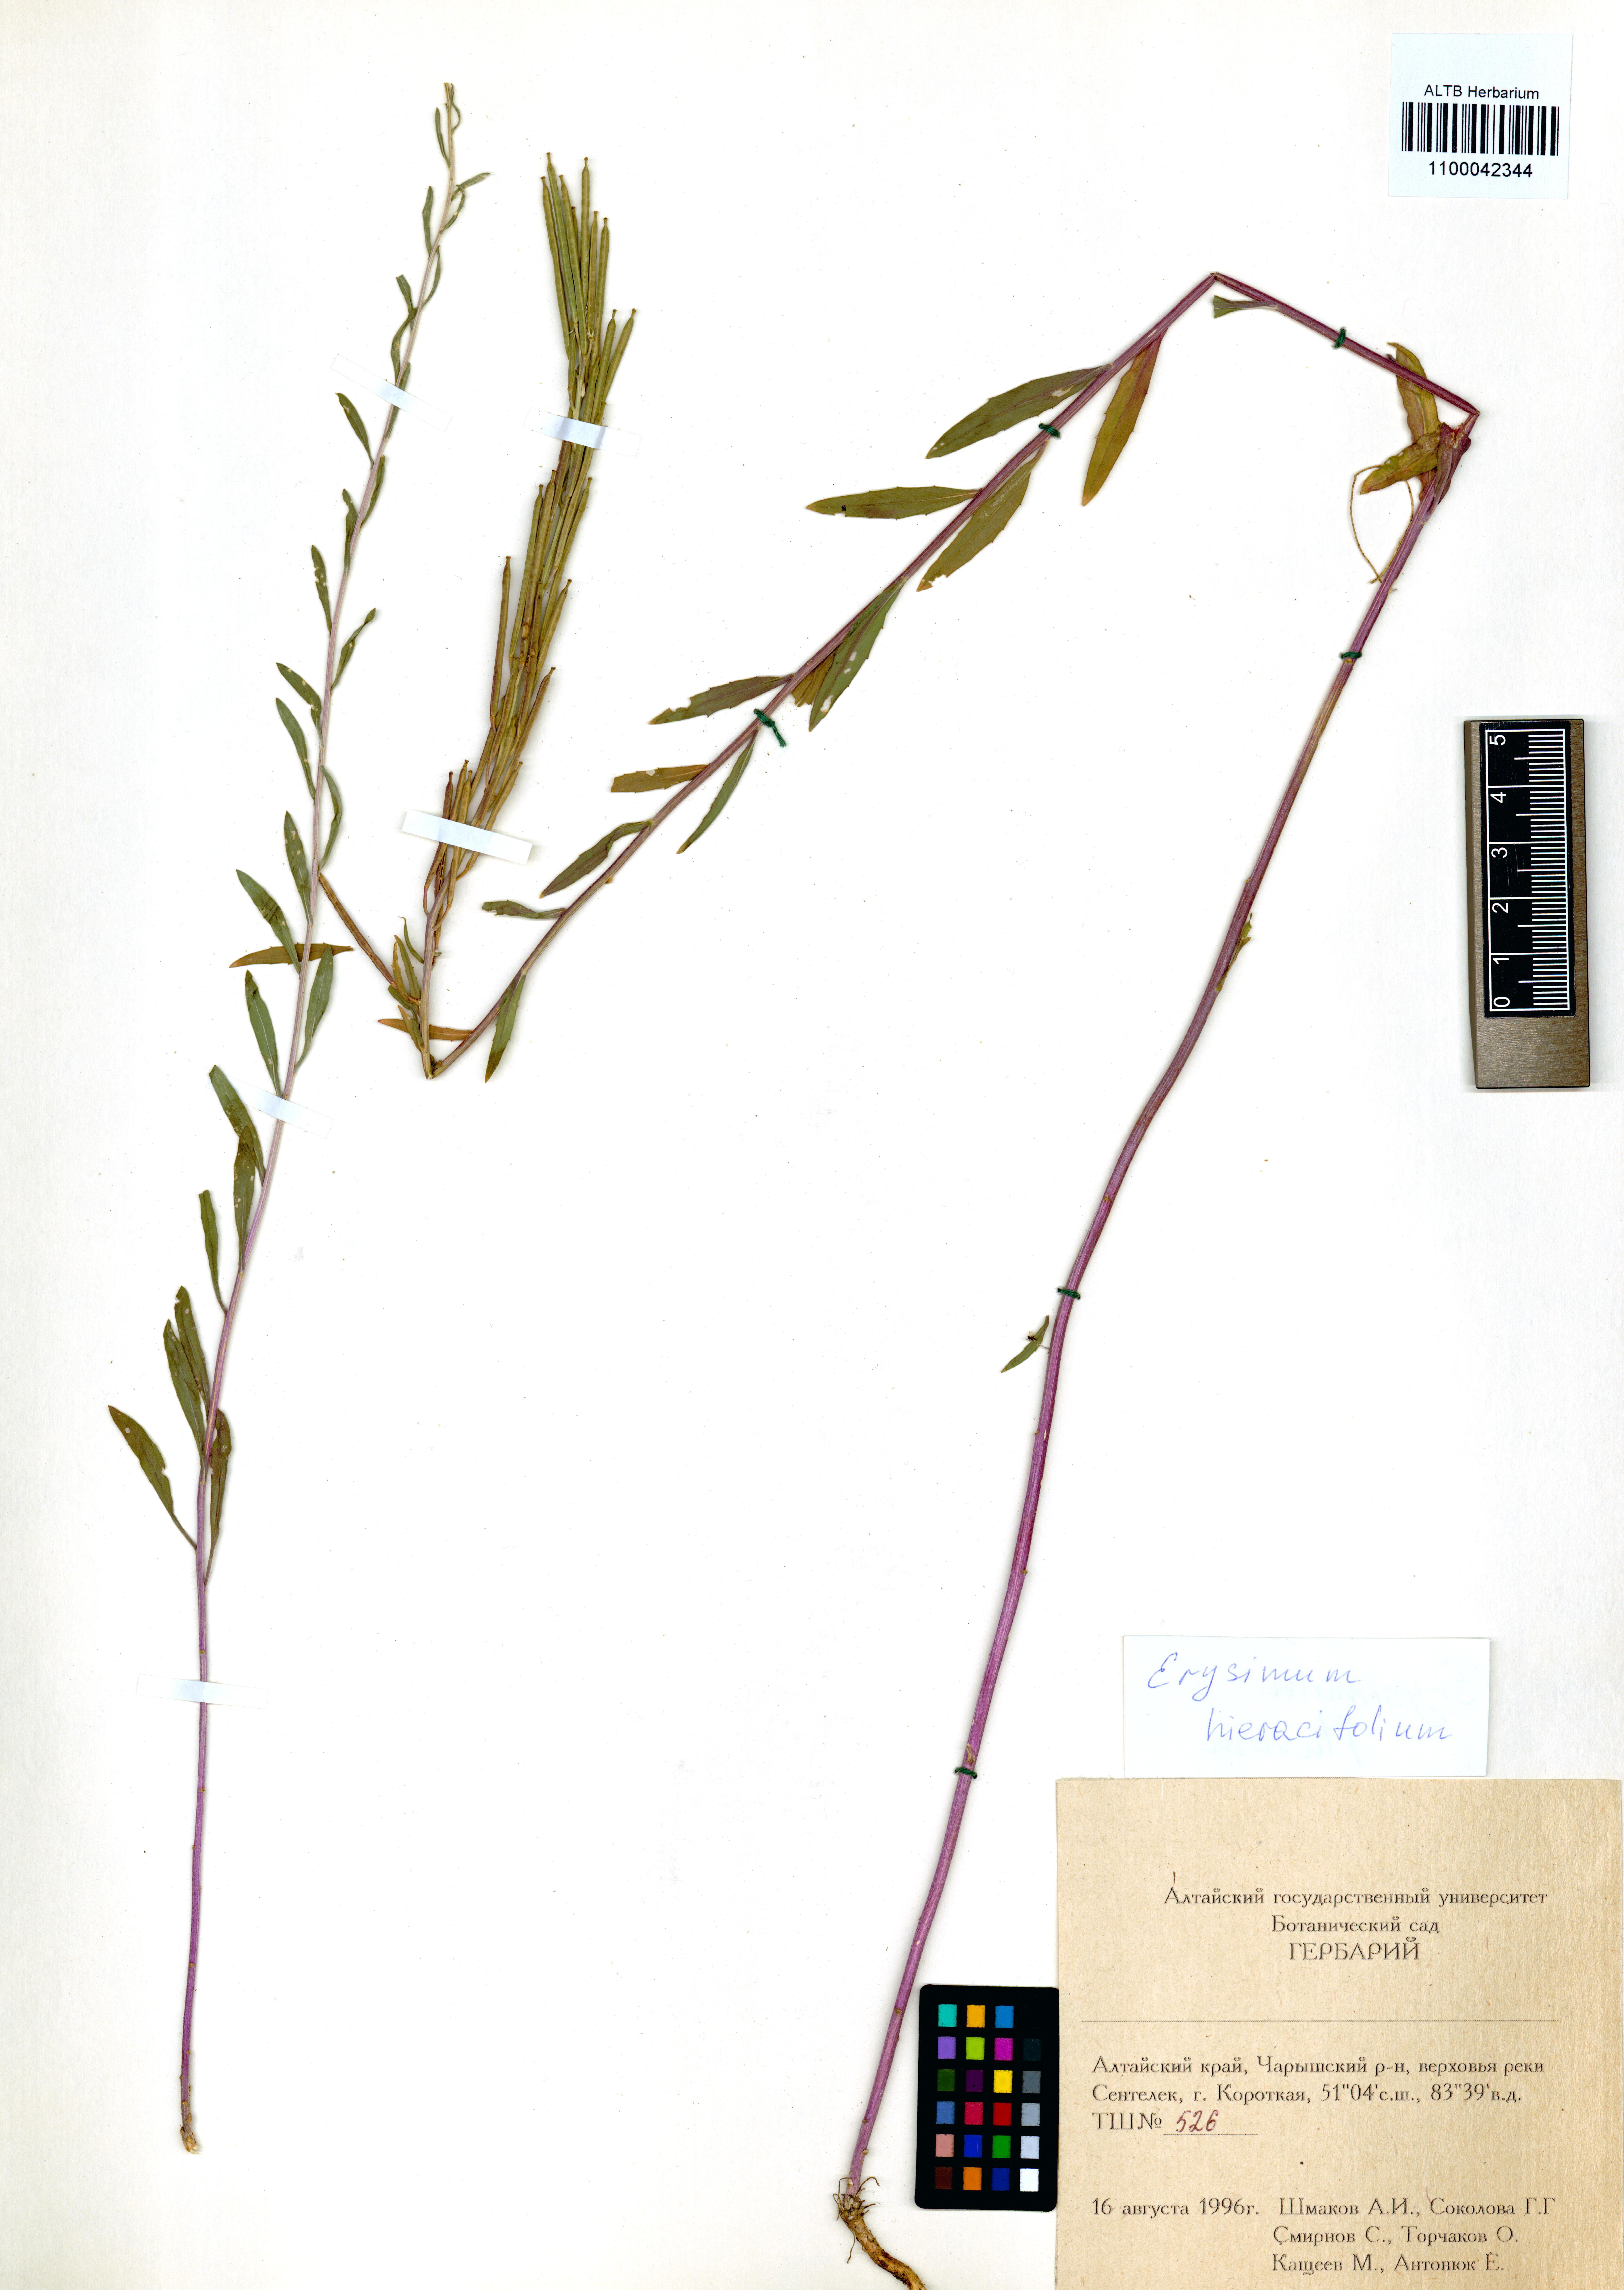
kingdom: Plantae
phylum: Tracheophyta
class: Magnoliopsida
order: Brassicales
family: Brassicaceae
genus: Erysimum
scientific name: Erysimum hieraciifolium
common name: European wallflower
